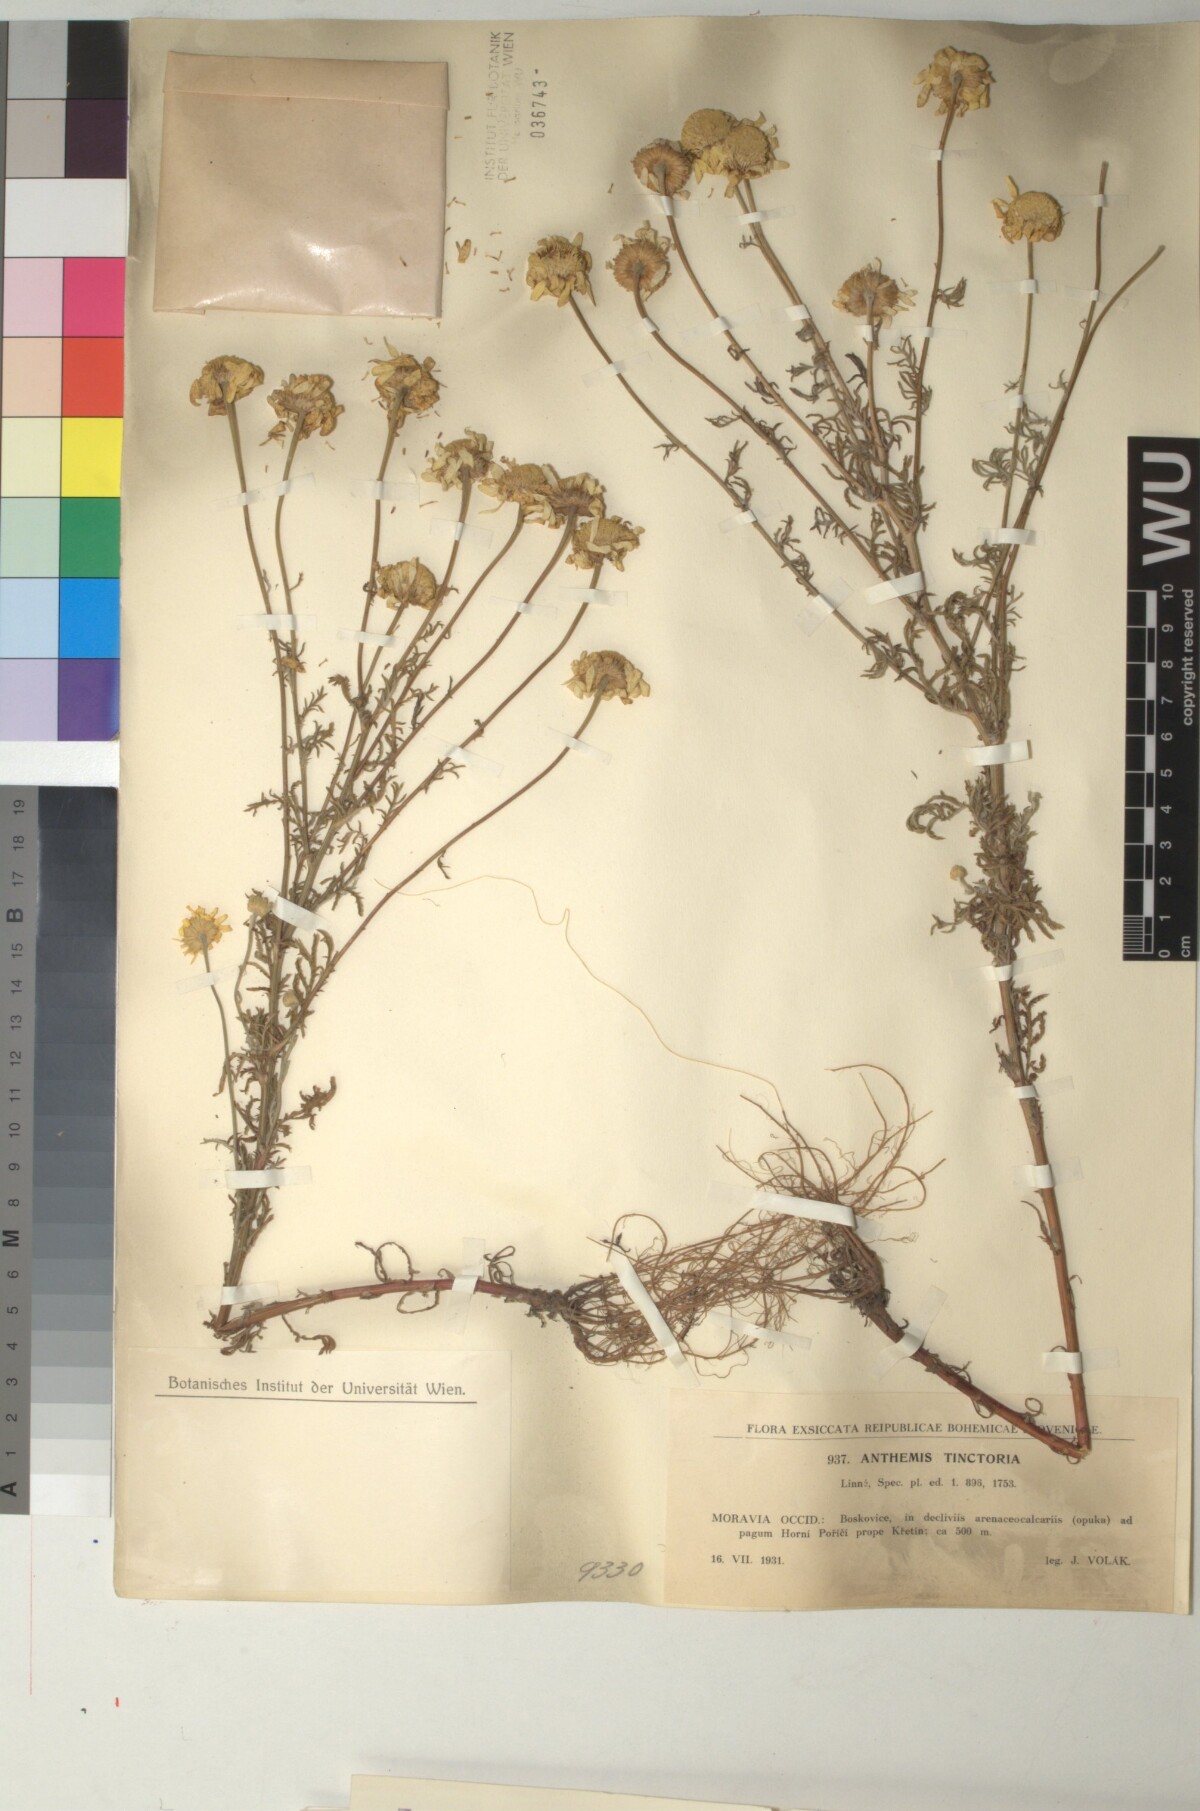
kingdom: Plantae
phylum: Tracheophyta
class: Magnoliopsida
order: Asterales
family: Asteraceae
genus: Cota
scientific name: Cota tinctoria
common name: Golden chamomile
